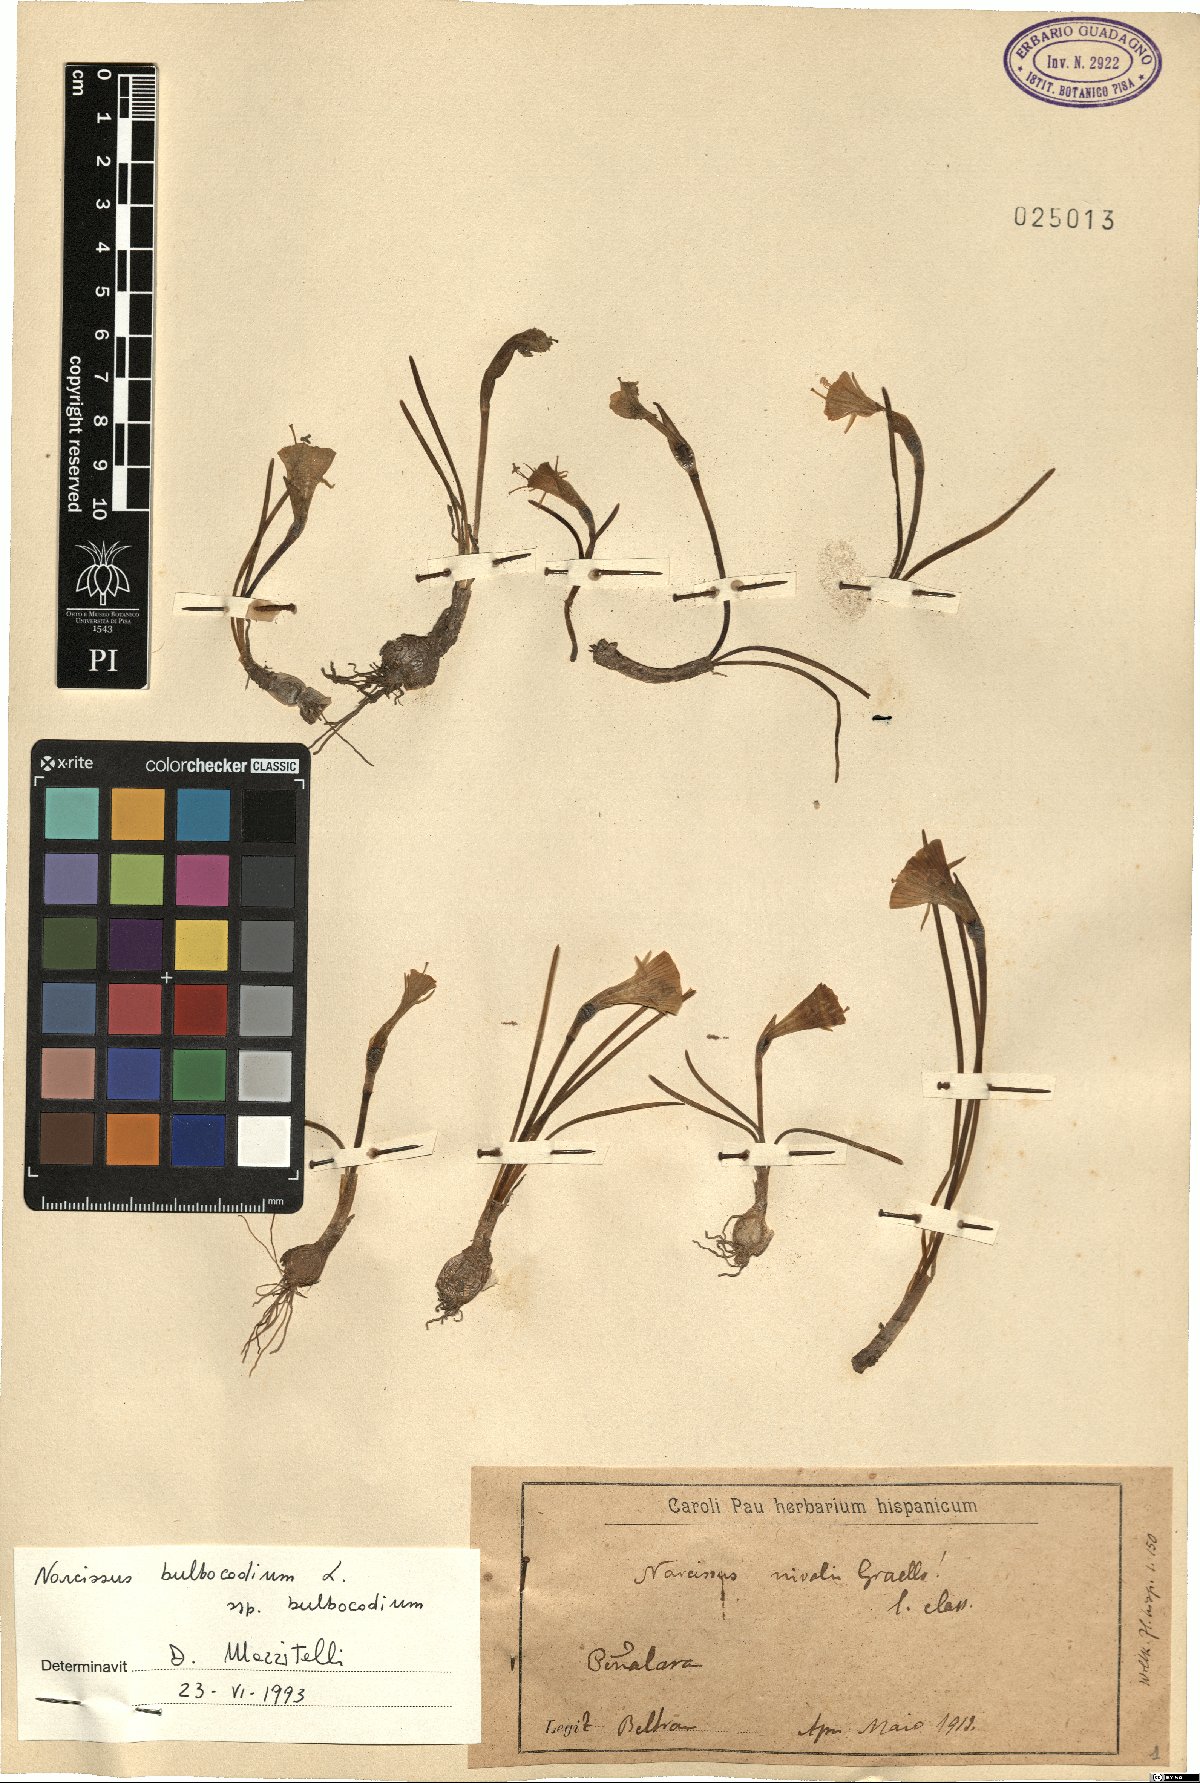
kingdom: Plantae
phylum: Tracheophyta
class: Liliopsida
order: Asparagales
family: Amaryllidaceae
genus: Narcissus
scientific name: Narcissus bulbocodium
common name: Hoop-petticoat daffodil
